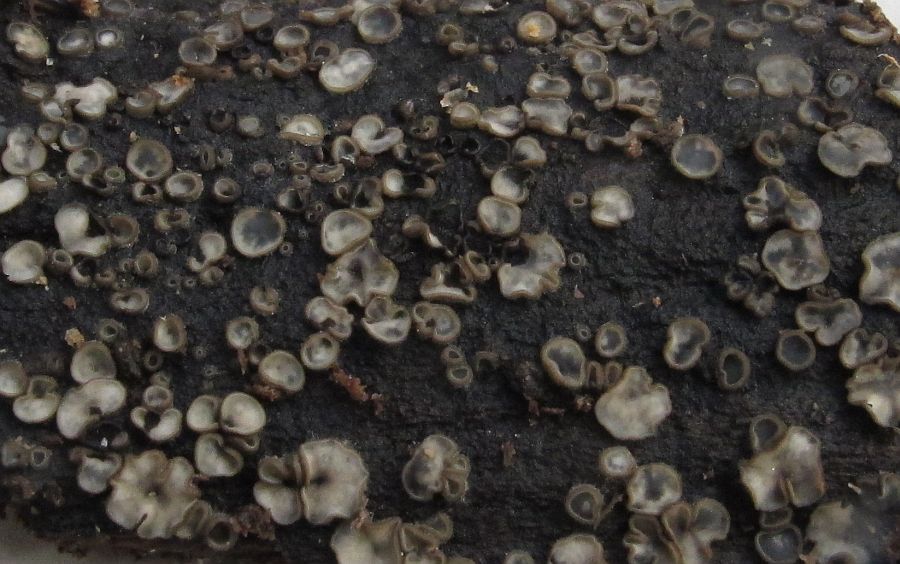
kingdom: Fungi
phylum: Ascomycota
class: Leotiomycetes
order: Helotiales
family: Mollisiaceae
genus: Tapesia
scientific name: Tapesia lividofusca
